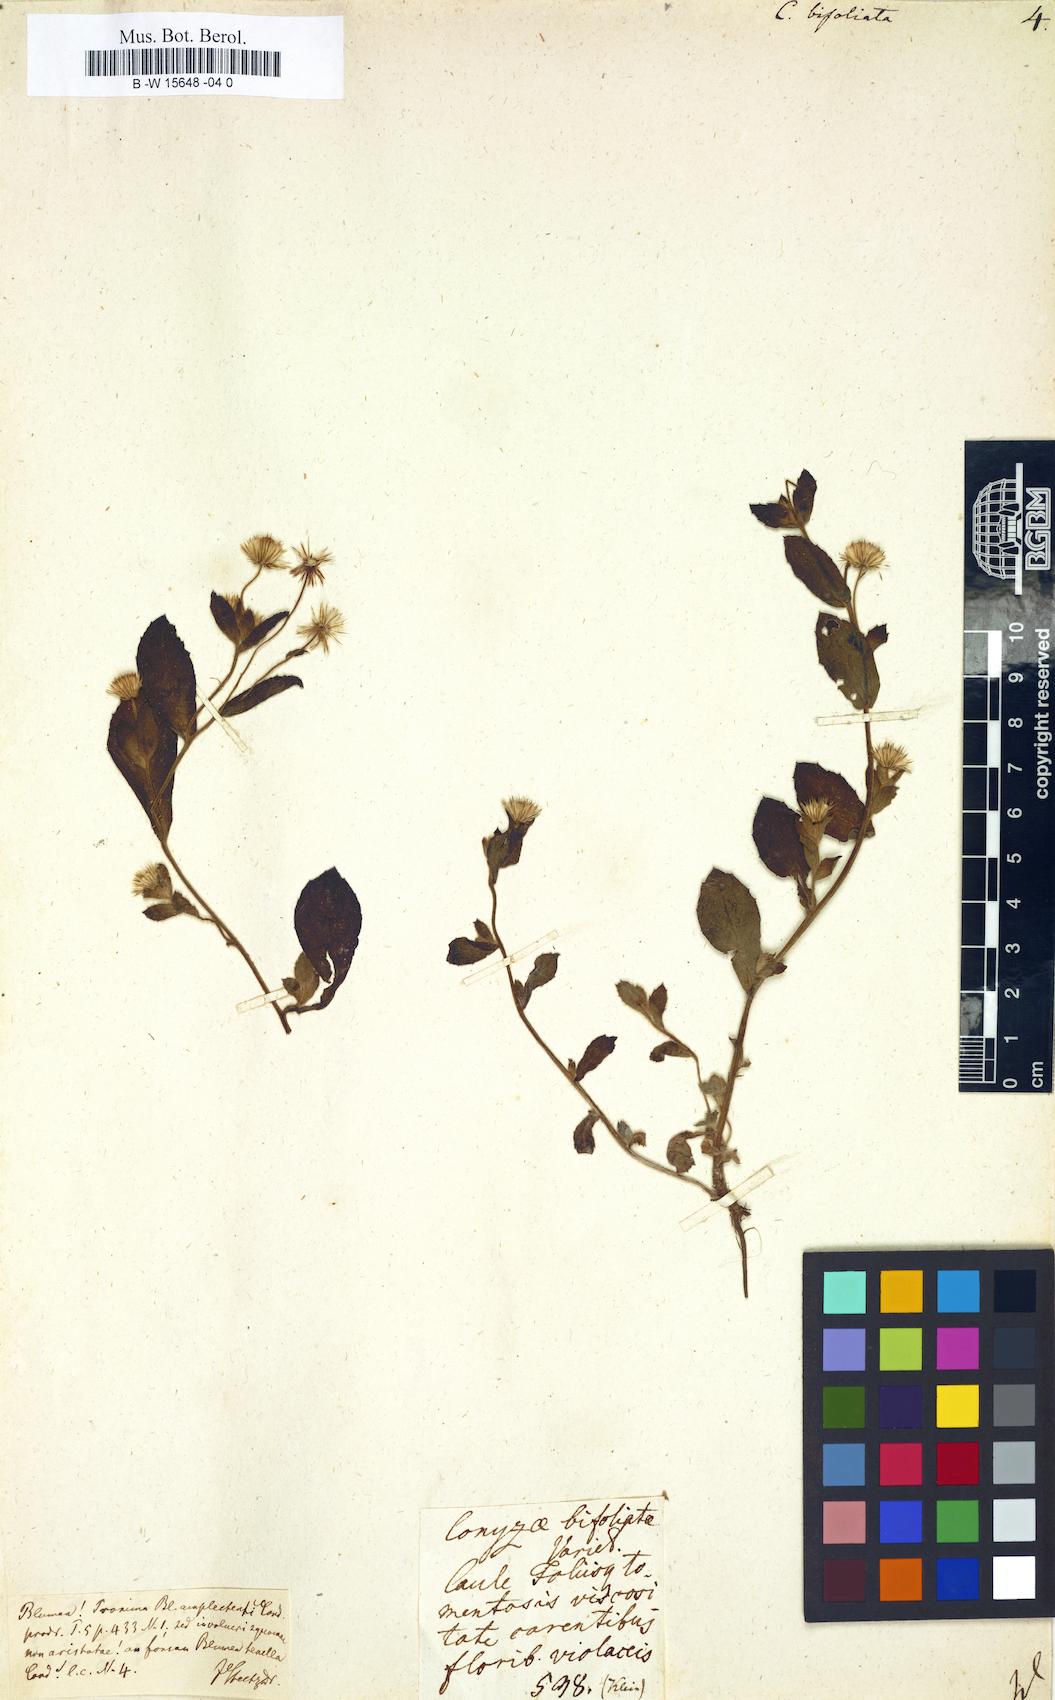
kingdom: Plantae
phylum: Tracheophyta
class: Magnoliopsida
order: Asterales
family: Asteraceae
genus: Sericocarpus
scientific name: Sericocarpus tortifolius
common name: Dixie aster
